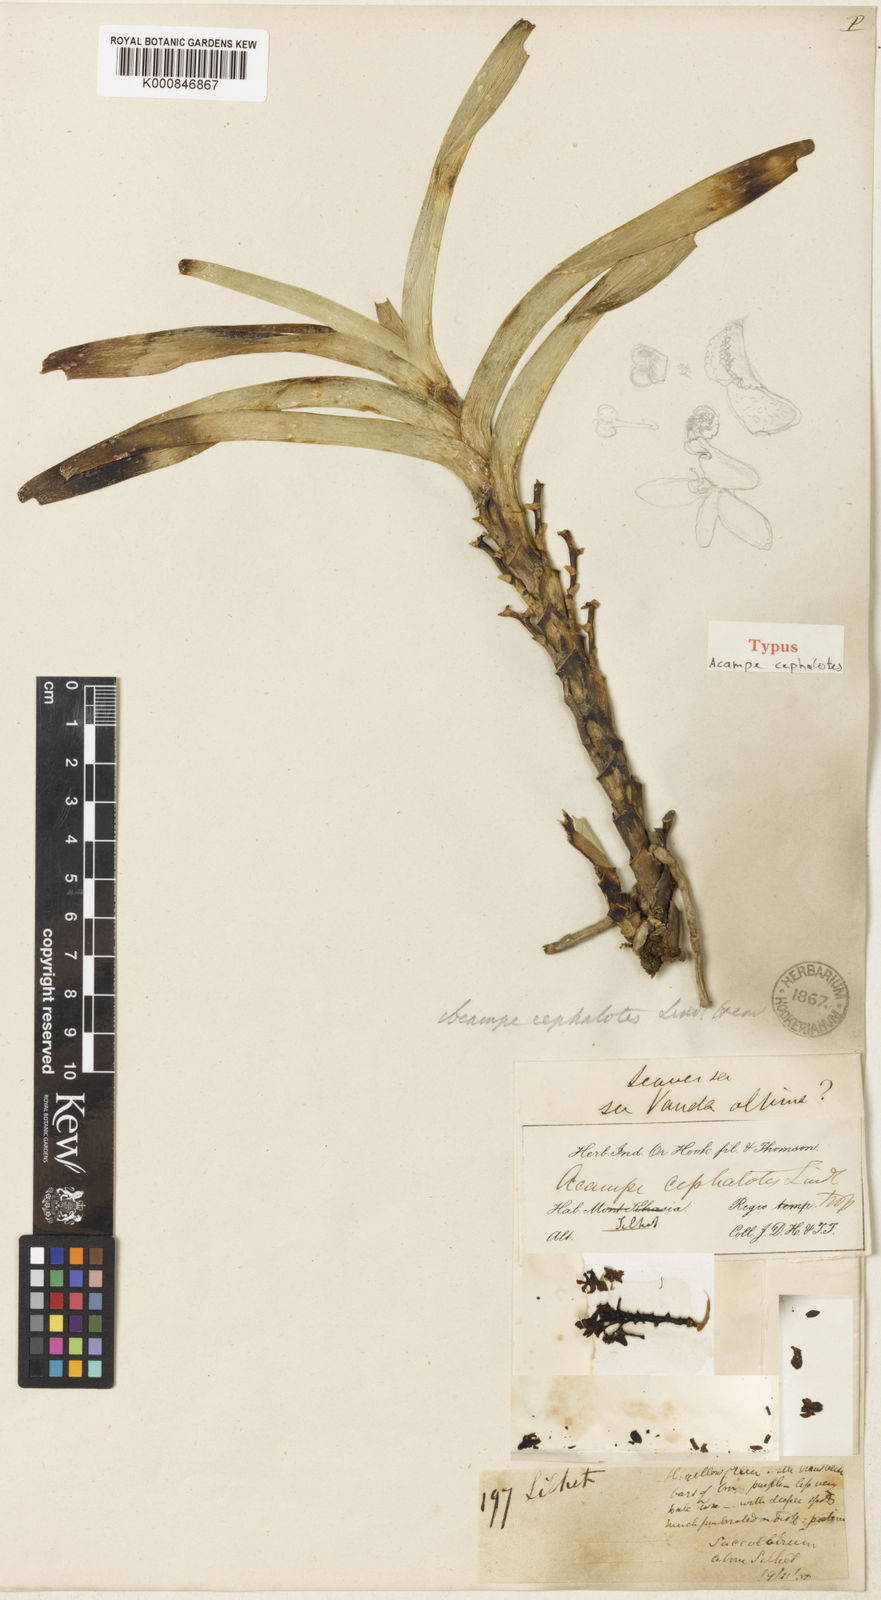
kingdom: Plantae
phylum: Tracheophyta
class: Liliopsida
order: Asparagales
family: Orchidaceae
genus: Acampe
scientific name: Acampe cephalotes
